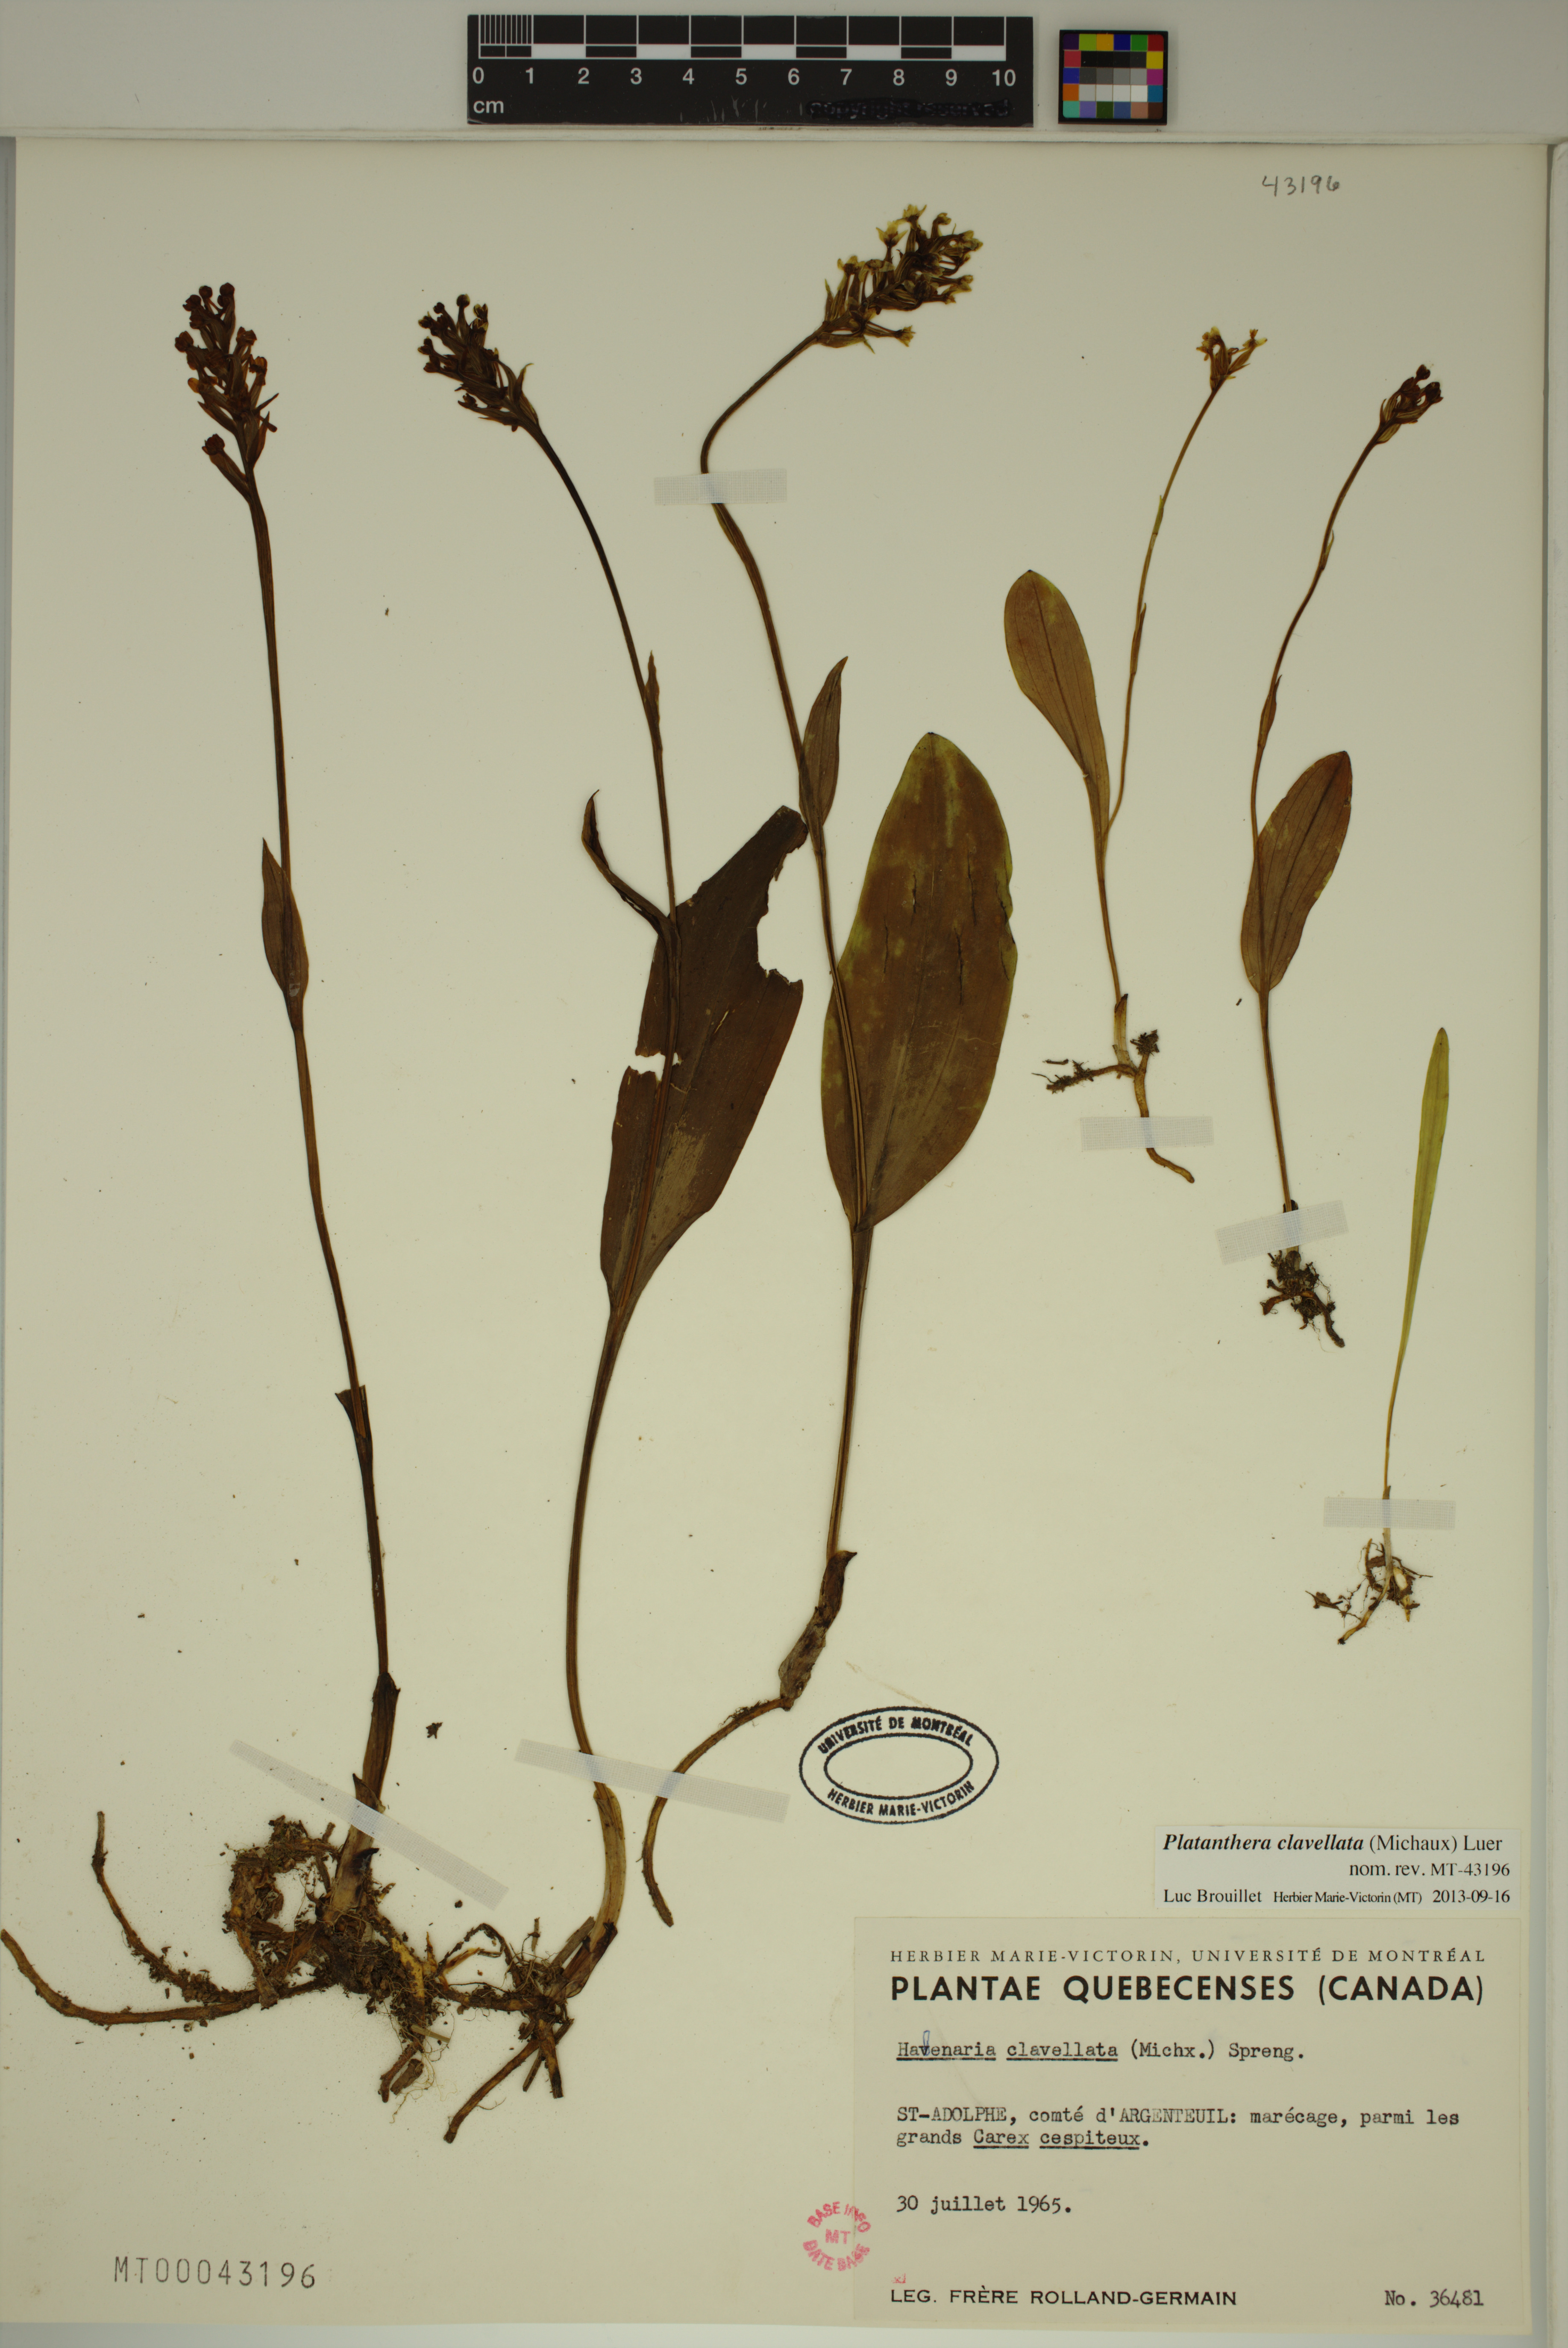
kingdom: Plantae
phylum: Tracheophyta
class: Liliopsida
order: Asparagales
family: Orchidaceae
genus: Platanthera
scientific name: Platanthera clavellata
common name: Club-spur orchid
